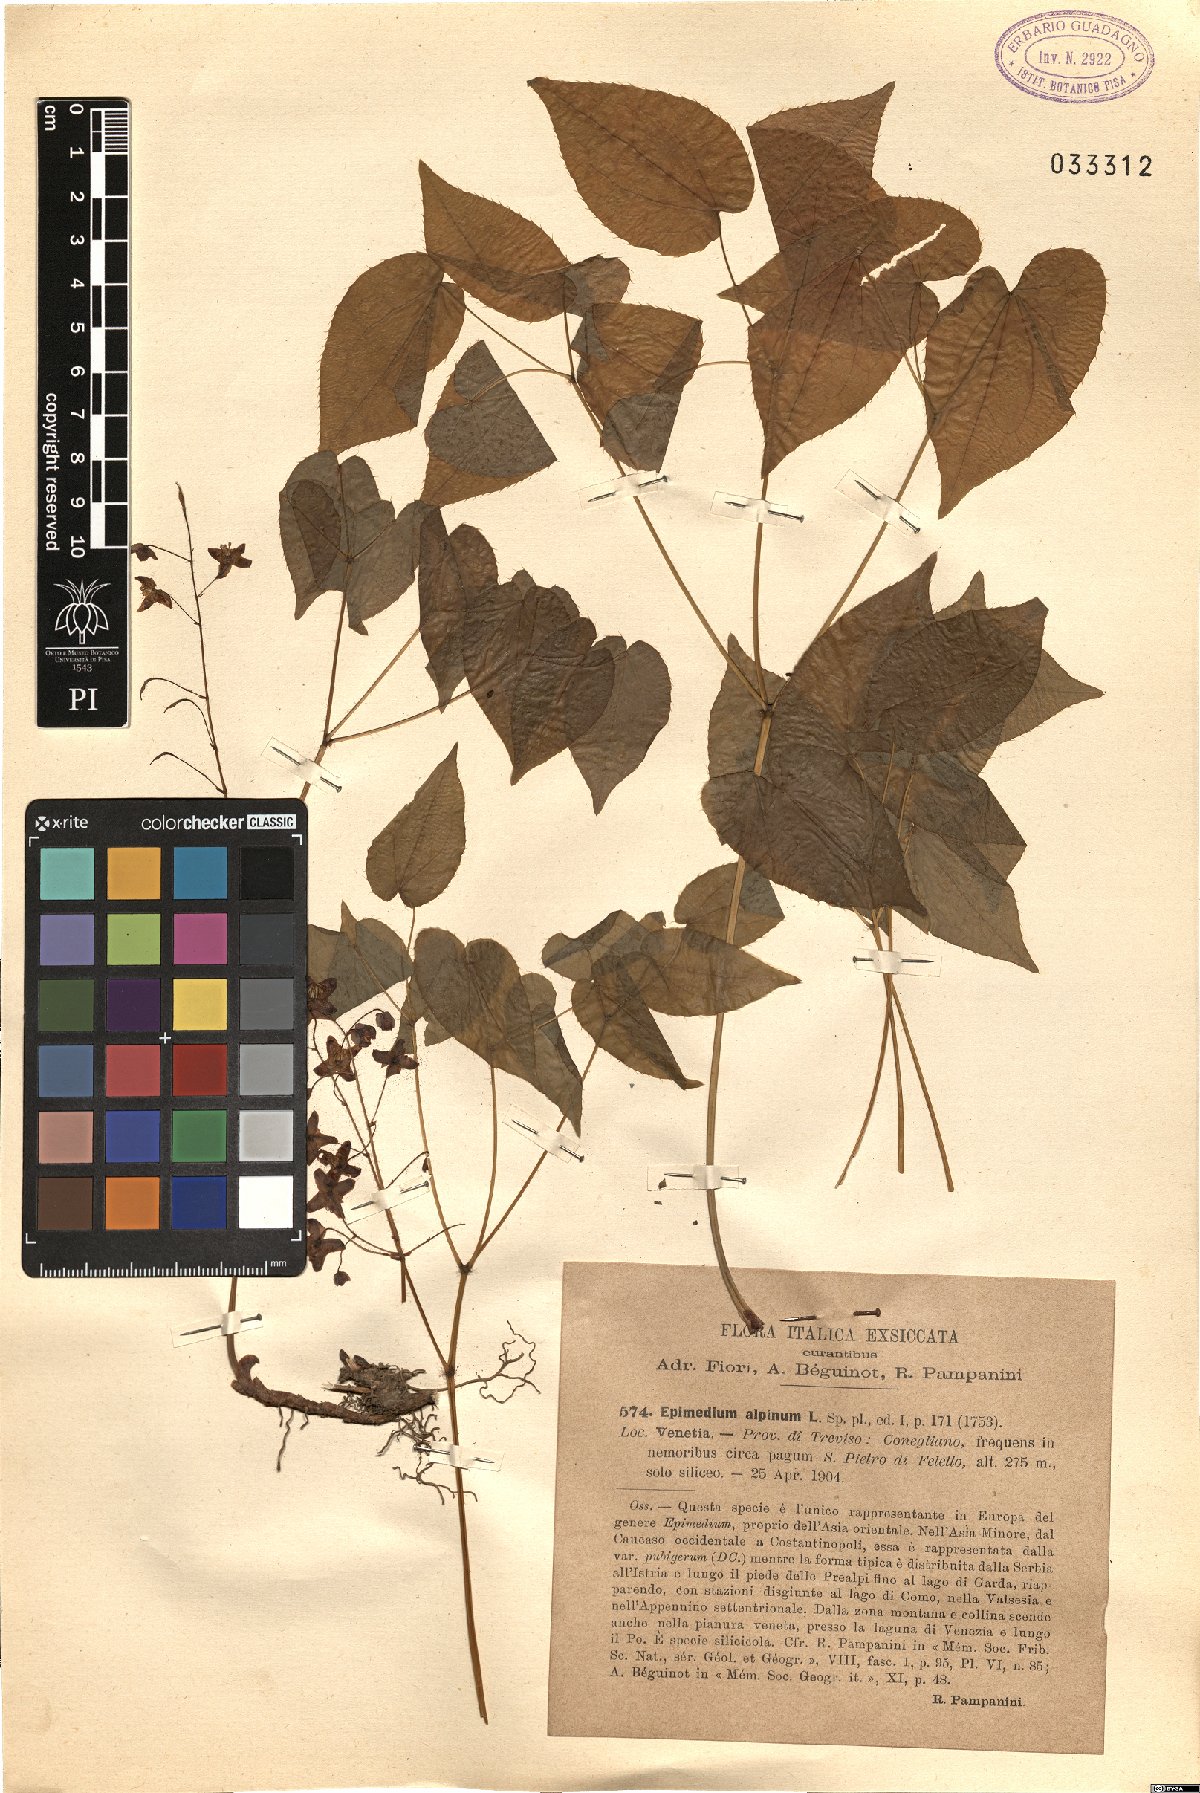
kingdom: Plantae
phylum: Tracheophyta
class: Magnoliopsida
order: Ranunculales
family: Berberidaceae
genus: Epimedium
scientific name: Epimedium alpinum
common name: Barrenwort
